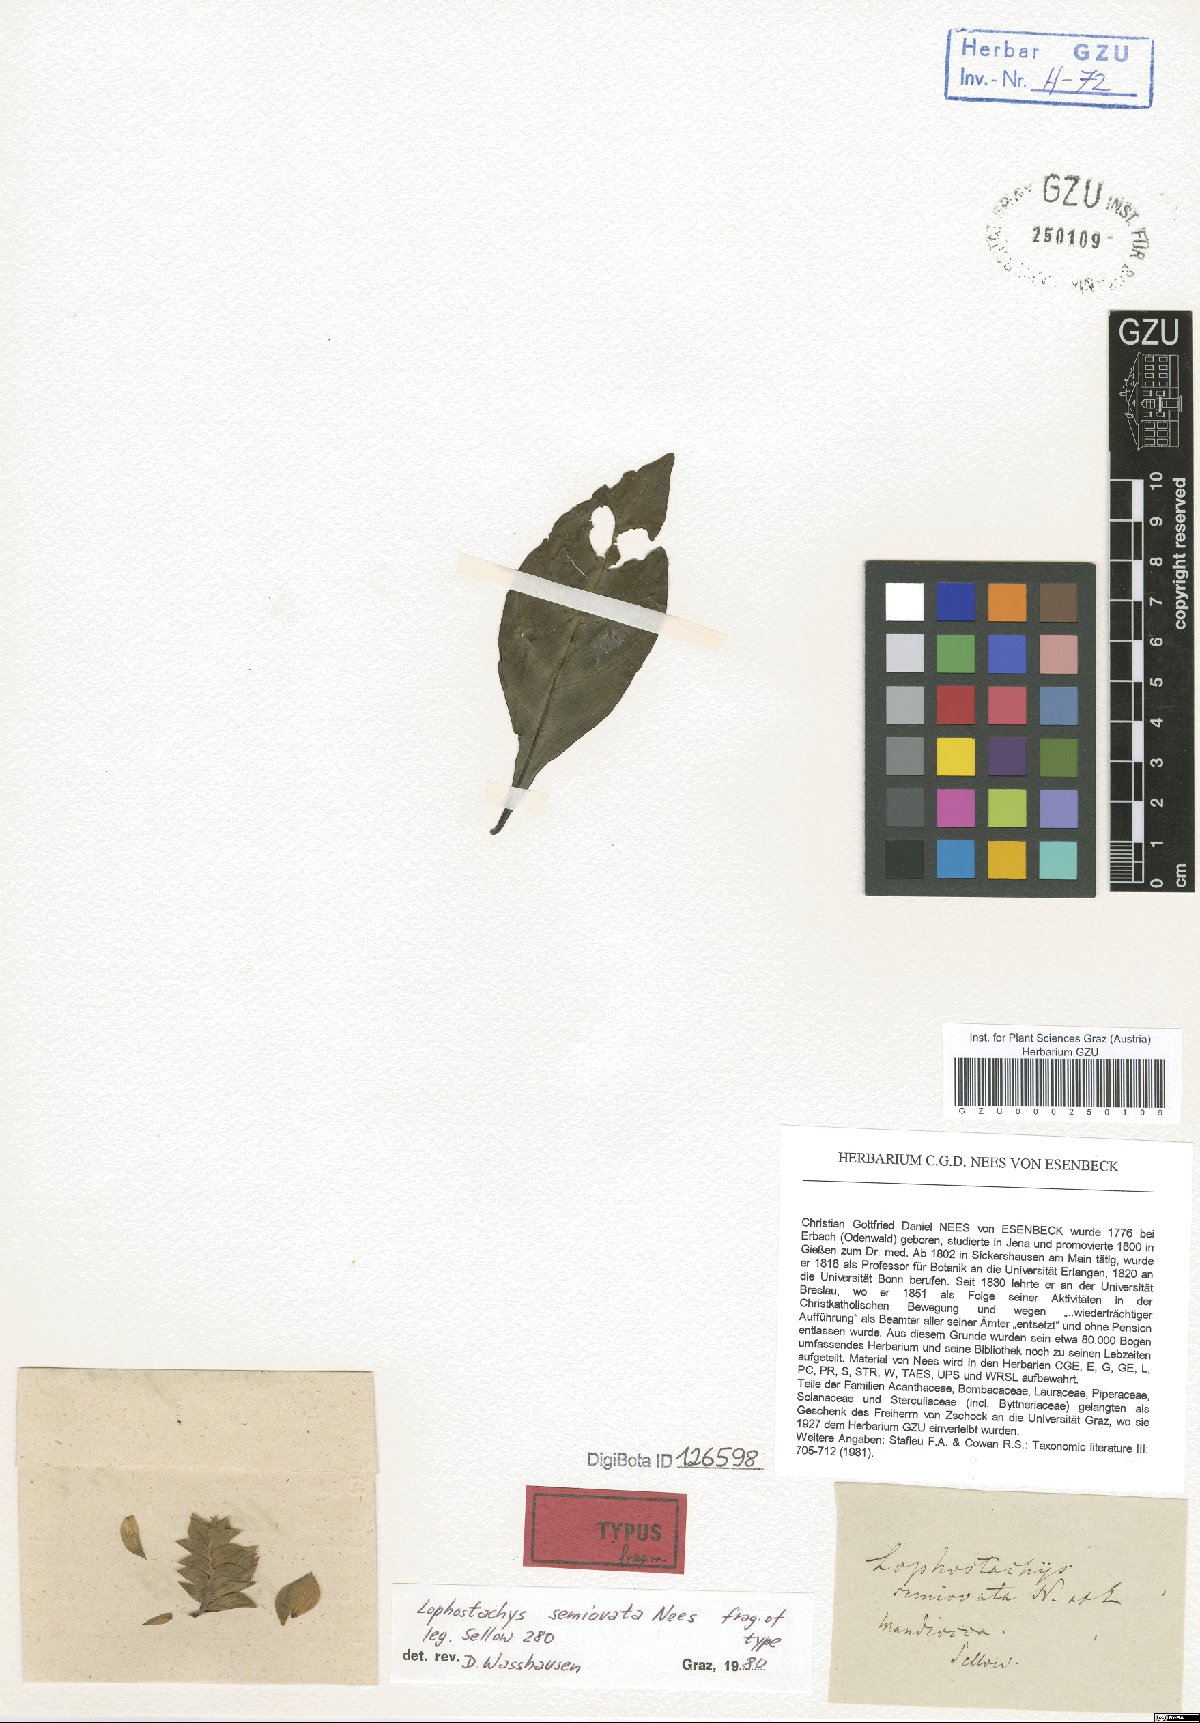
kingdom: Plantae
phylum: Tracheophyta
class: Magnoliopsida
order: Lamiales
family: Acanthaceae
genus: Lepidagathis
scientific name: Lepidagathis nemoralis
